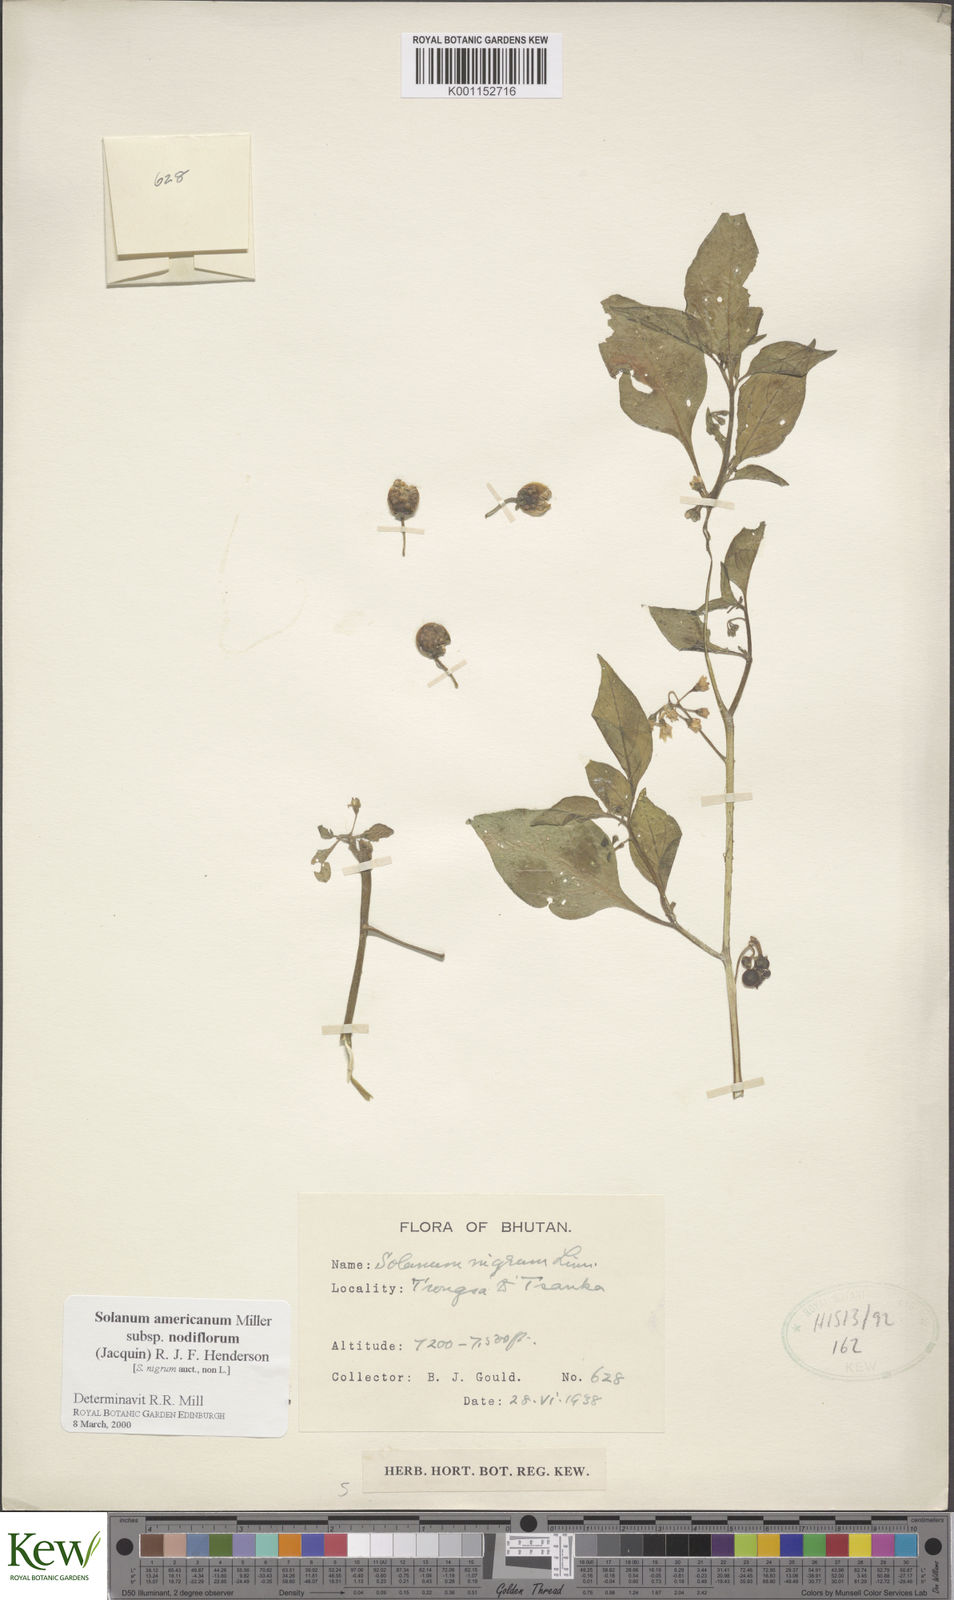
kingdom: Plantae
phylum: Tracheophyta
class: Magnoliopsida
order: Solanales
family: Solanaceae
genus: Solanum
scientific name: Solanum nigrum
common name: Black nightshade
